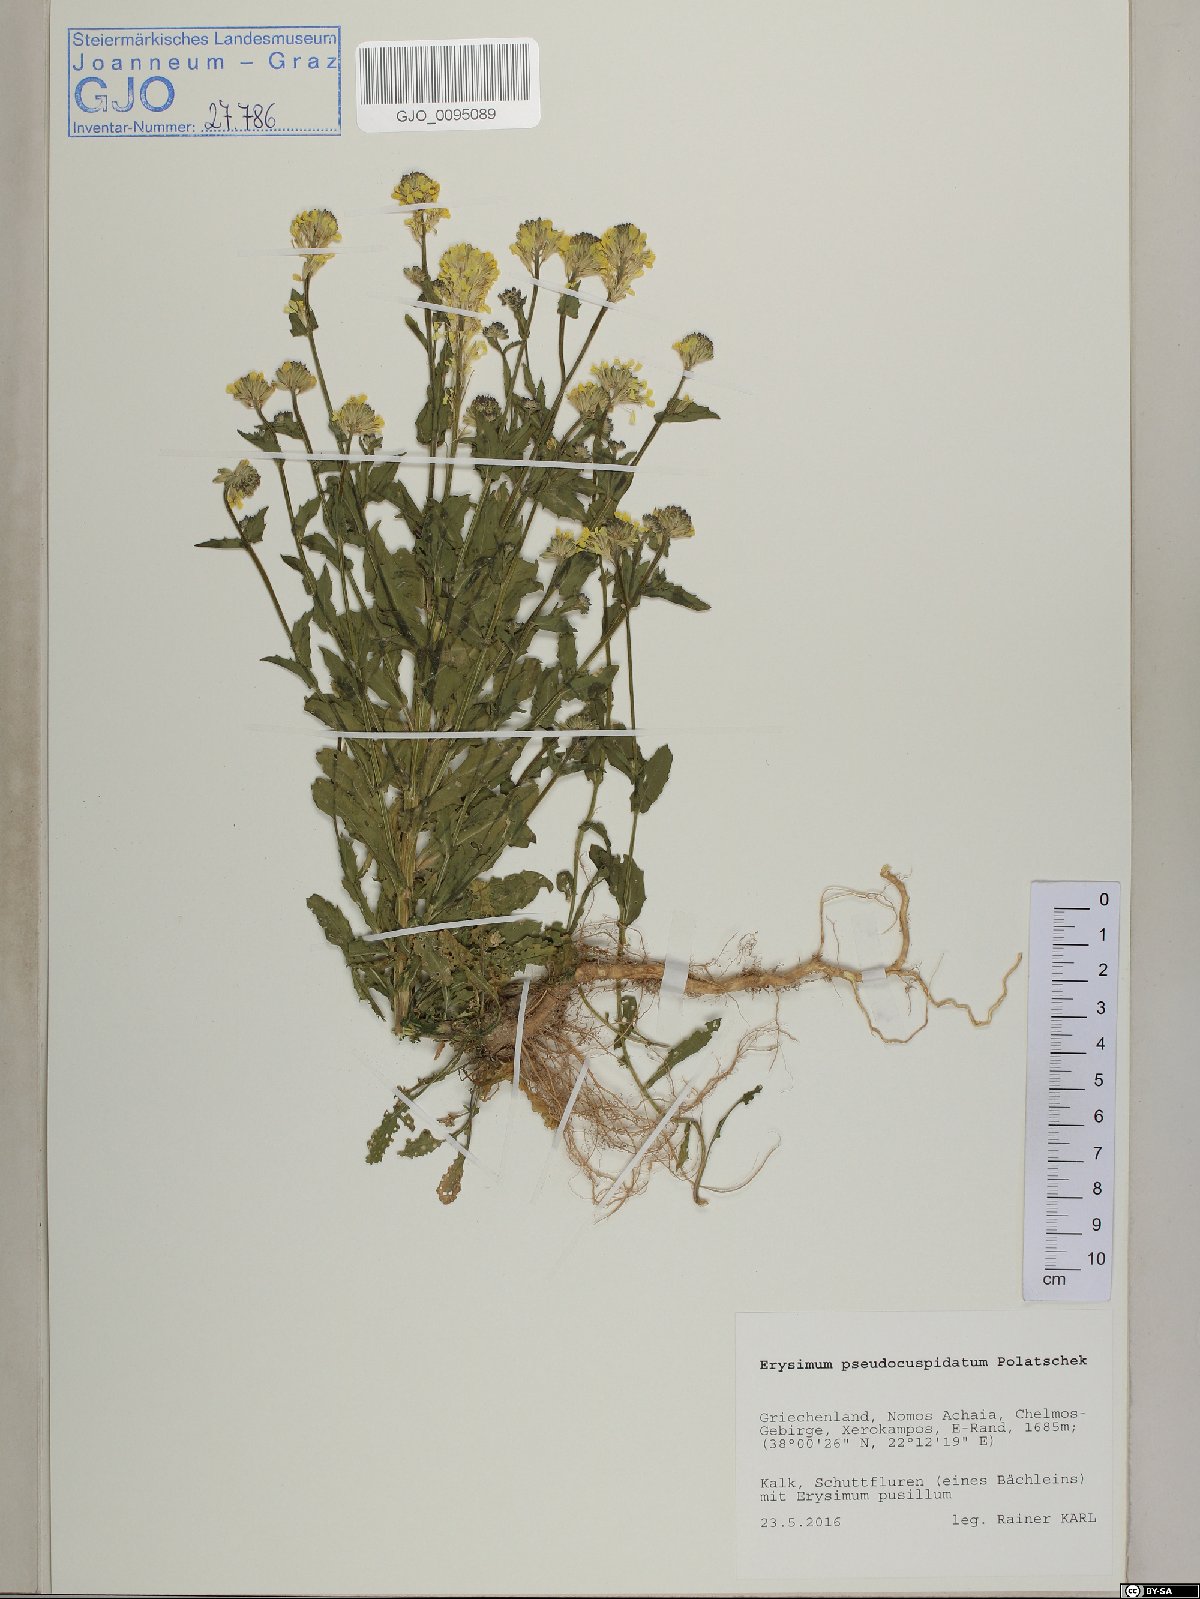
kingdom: Plantae
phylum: Tracheophyta
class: Magnoliopsida
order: Brassicales
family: Brassicaceae
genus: Erysimum
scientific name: Erysimum pseudocuspidatum
